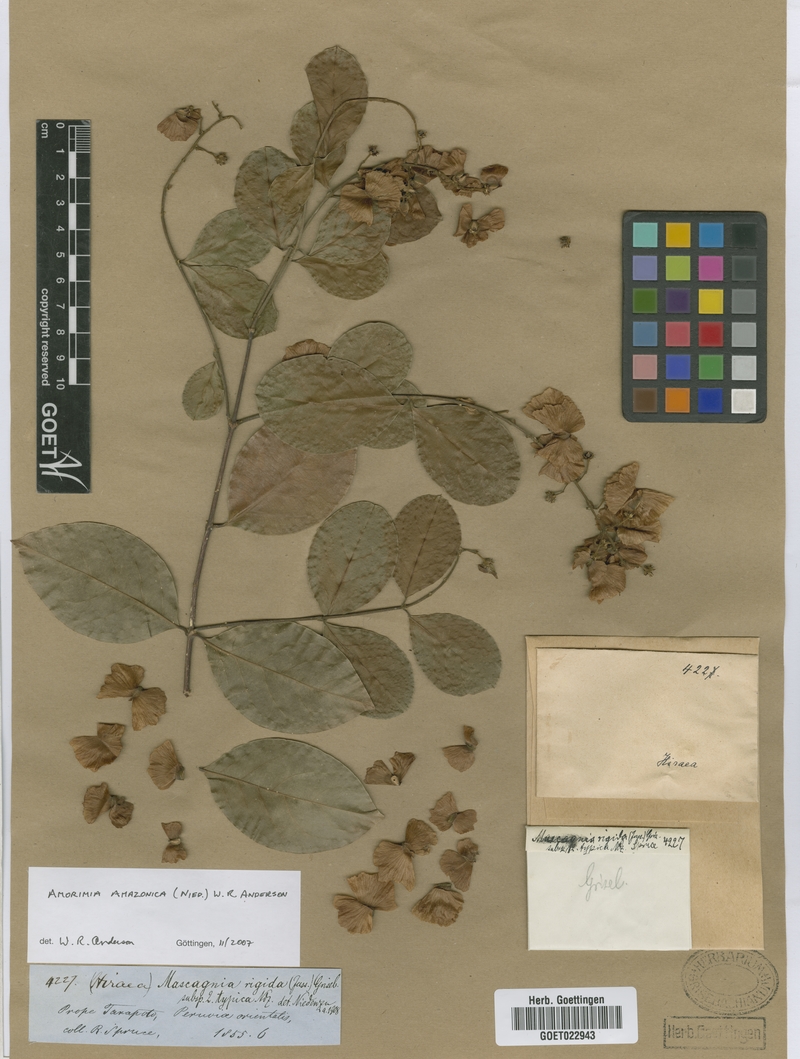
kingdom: Plantae
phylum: Tracheophyta
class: Magnoliopsida
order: Malpighiales
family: Malpighiaceae
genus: Amorimia
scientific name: Amorimia amazonica
